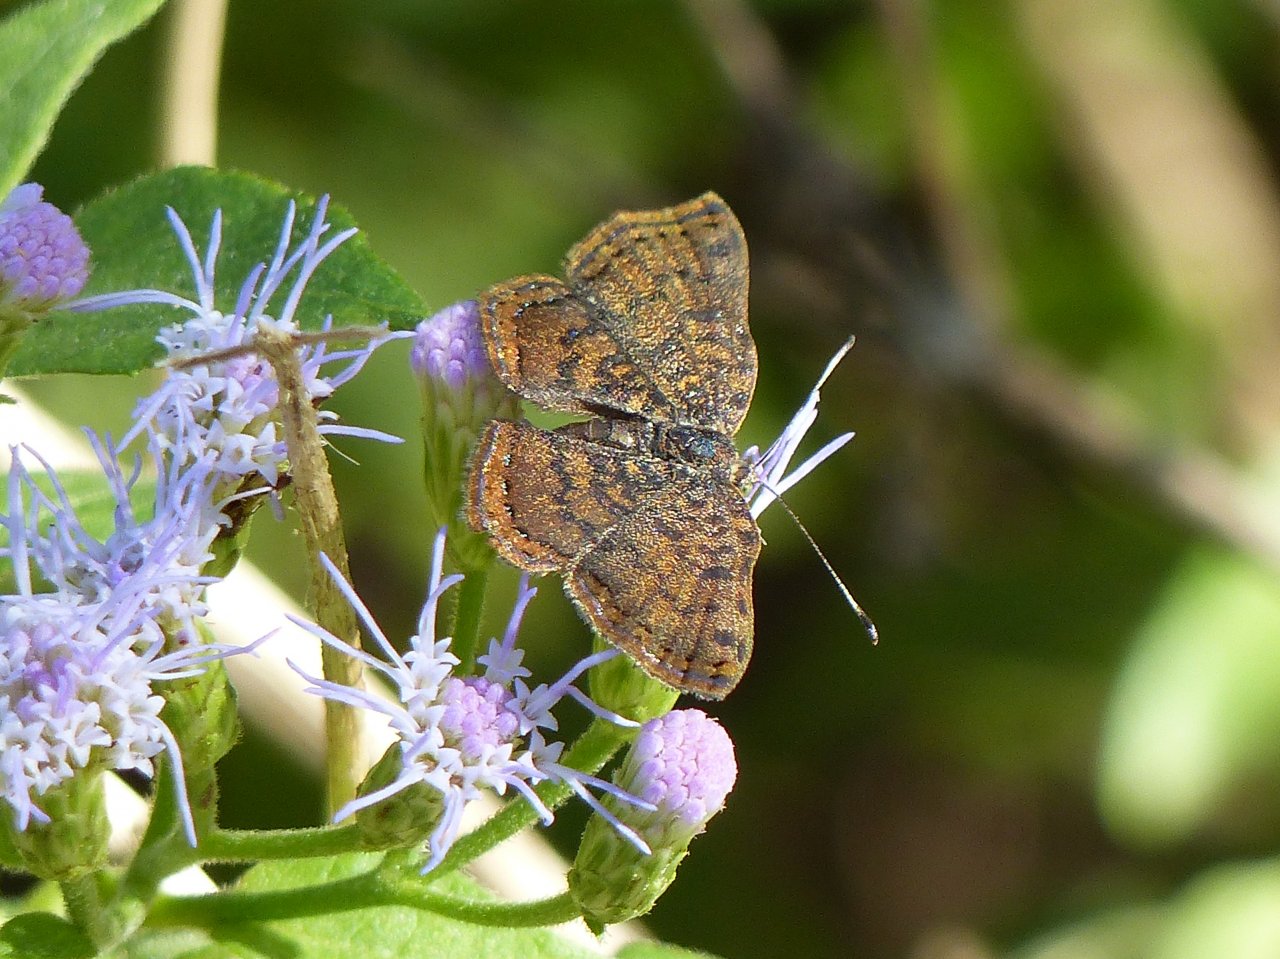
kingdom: Animalia
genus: Caria
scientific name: Caria ino
